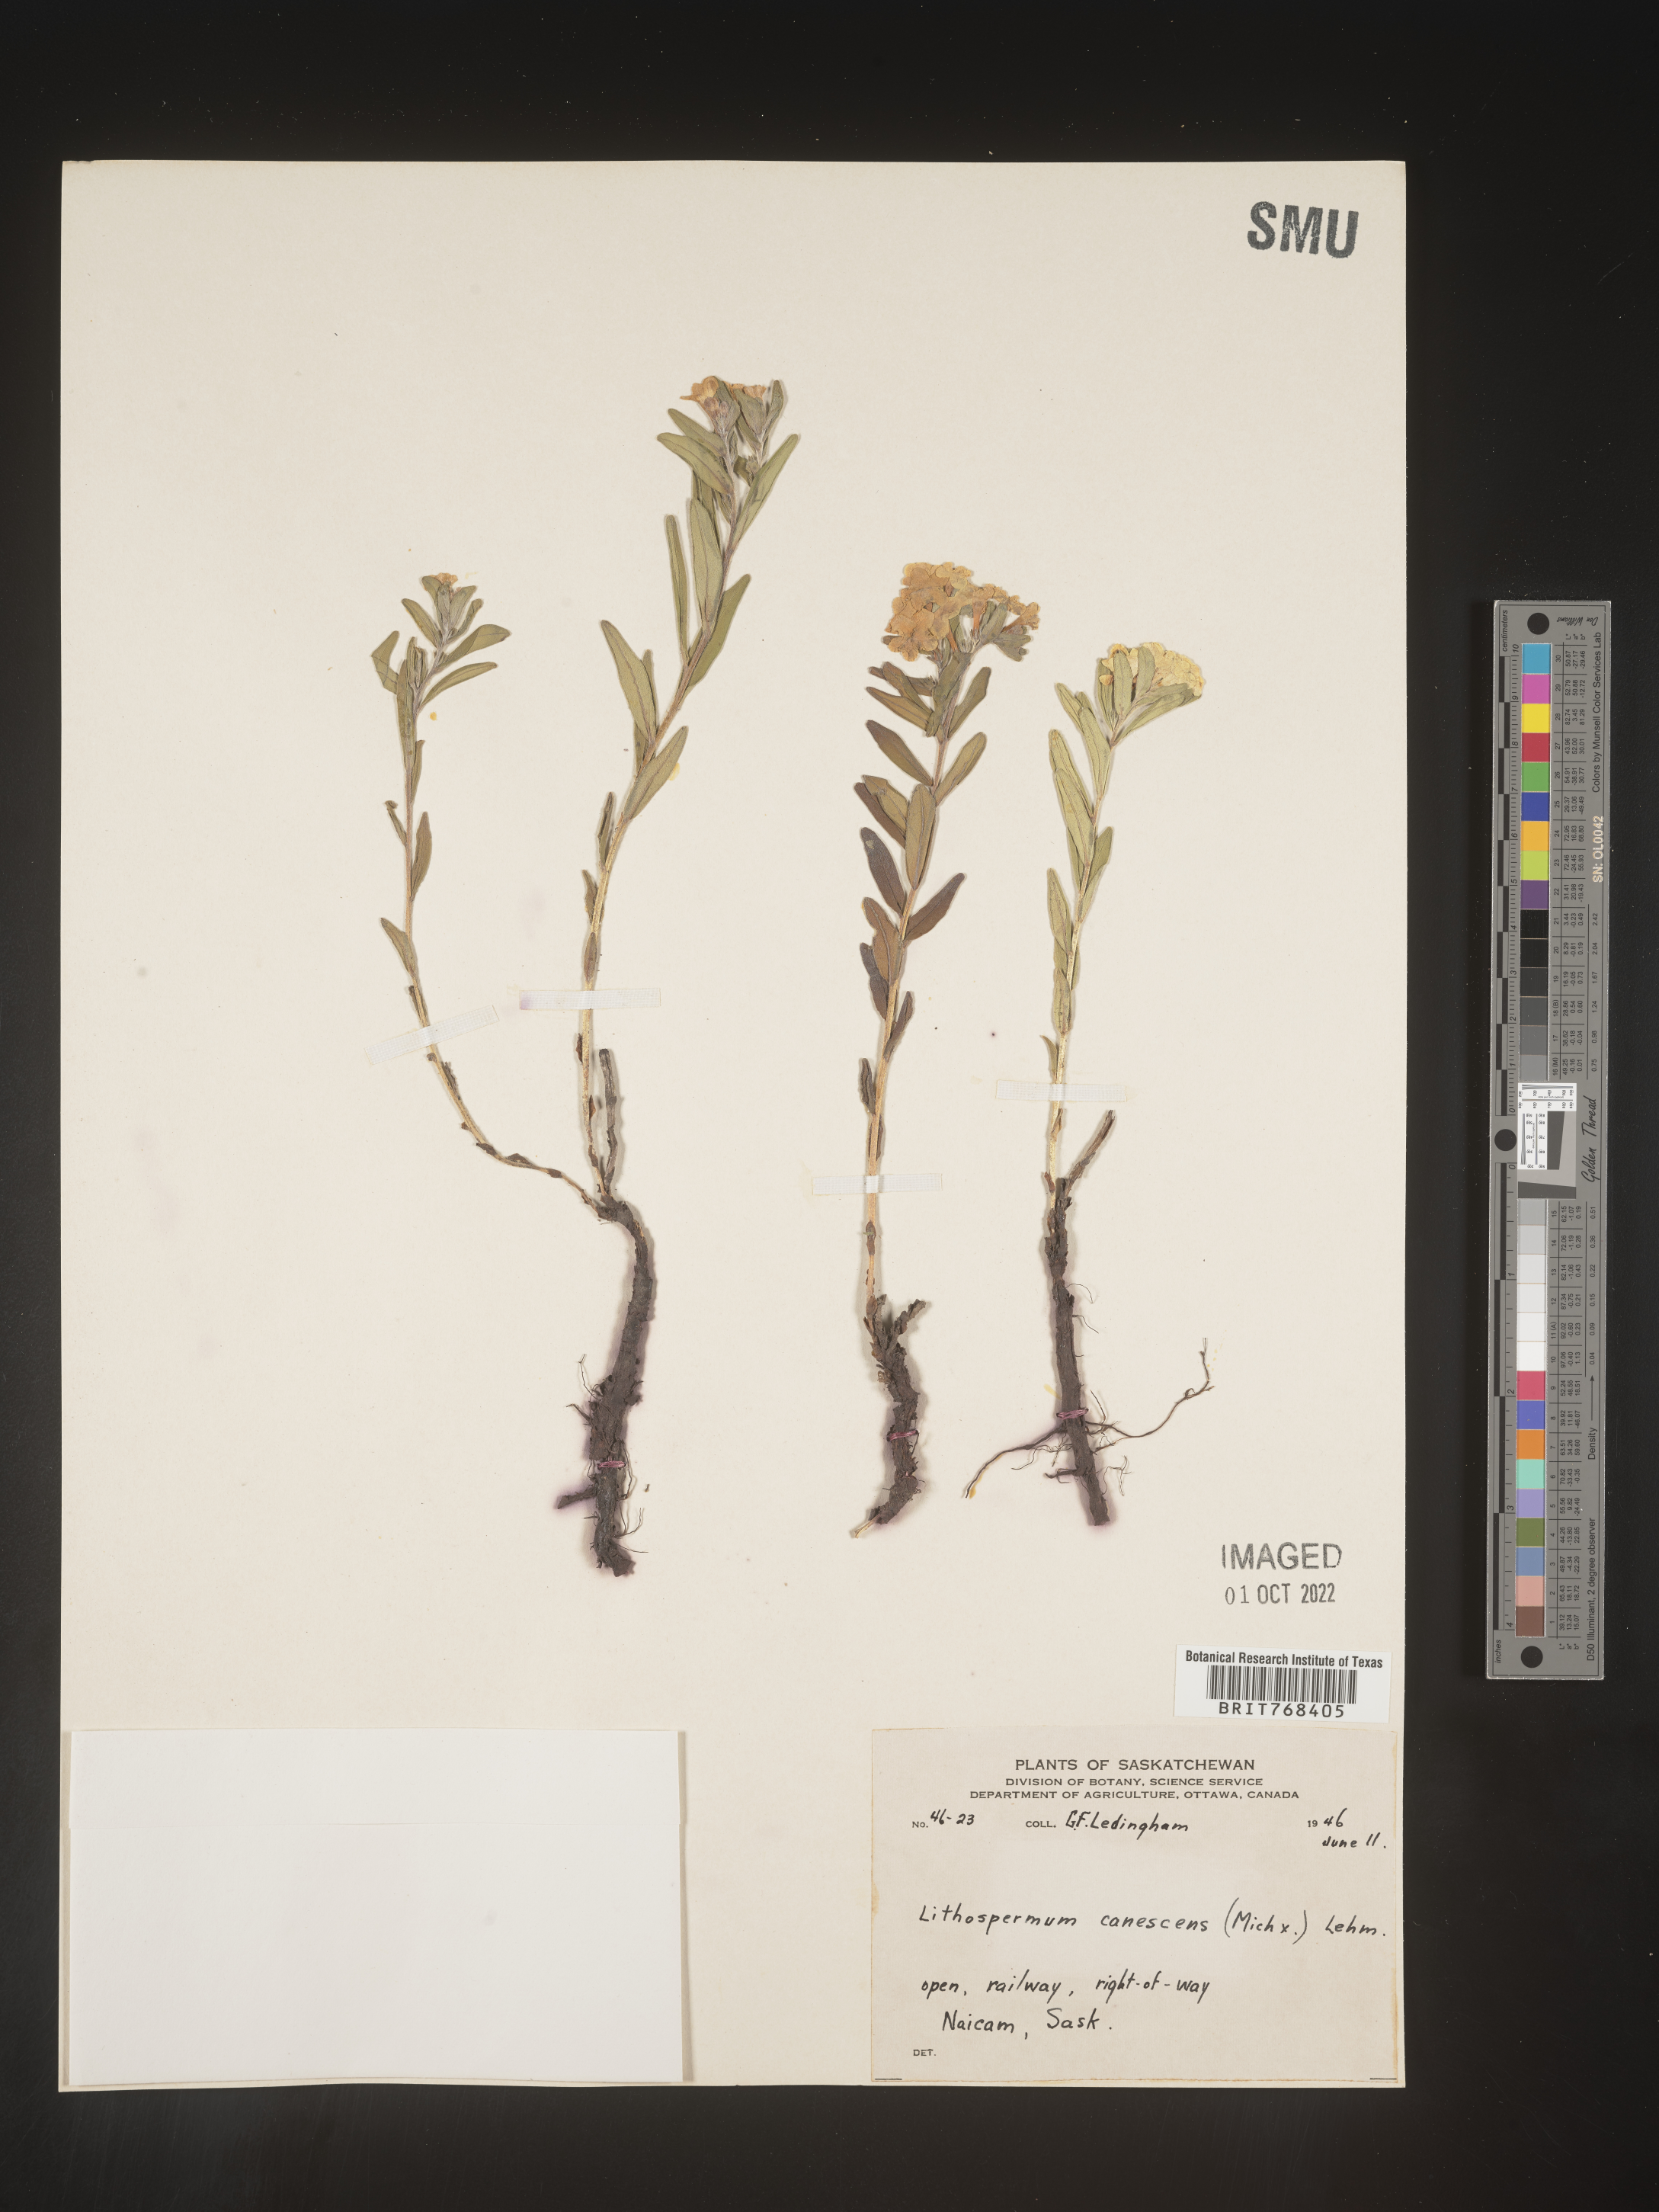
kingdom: Plantae
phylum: Tracheophyta
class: Magnoliopsida
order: Boraginales
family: Boraginaceae
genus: Lithospermum
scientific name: Lithospermum canescens
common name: Hoary puccoon
